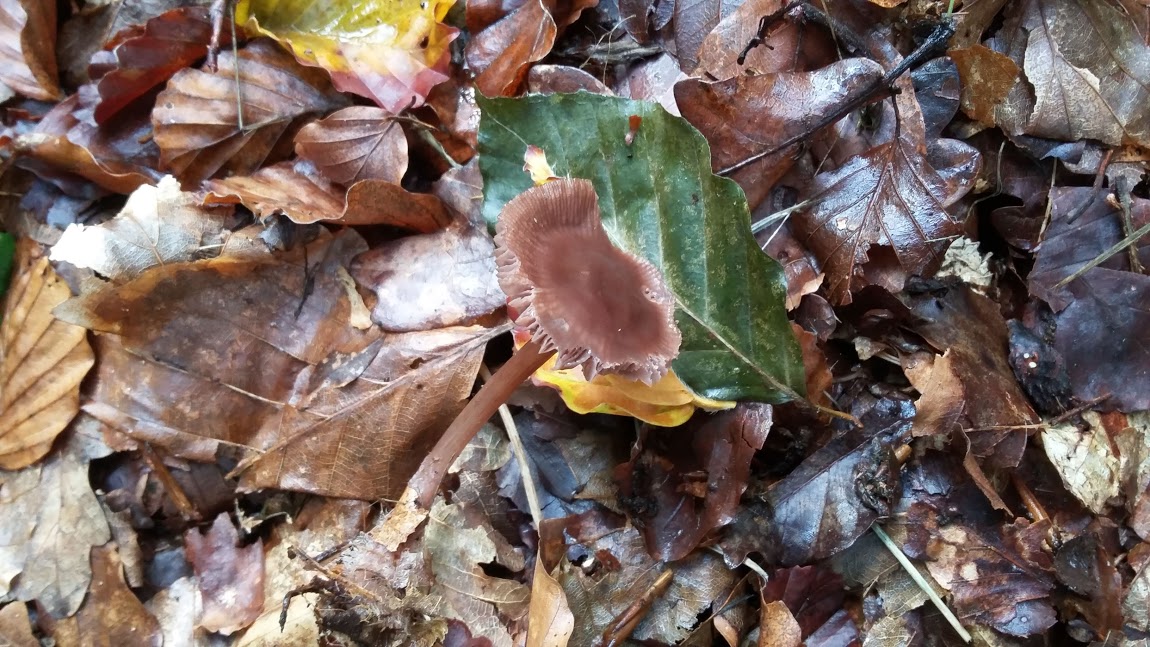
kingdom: Fungi
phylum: Basidiomycota
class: Agaricomycetes
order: Agaricales
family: Mycenaceae
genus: Mycena
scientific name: Mycena
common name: huesvamp
